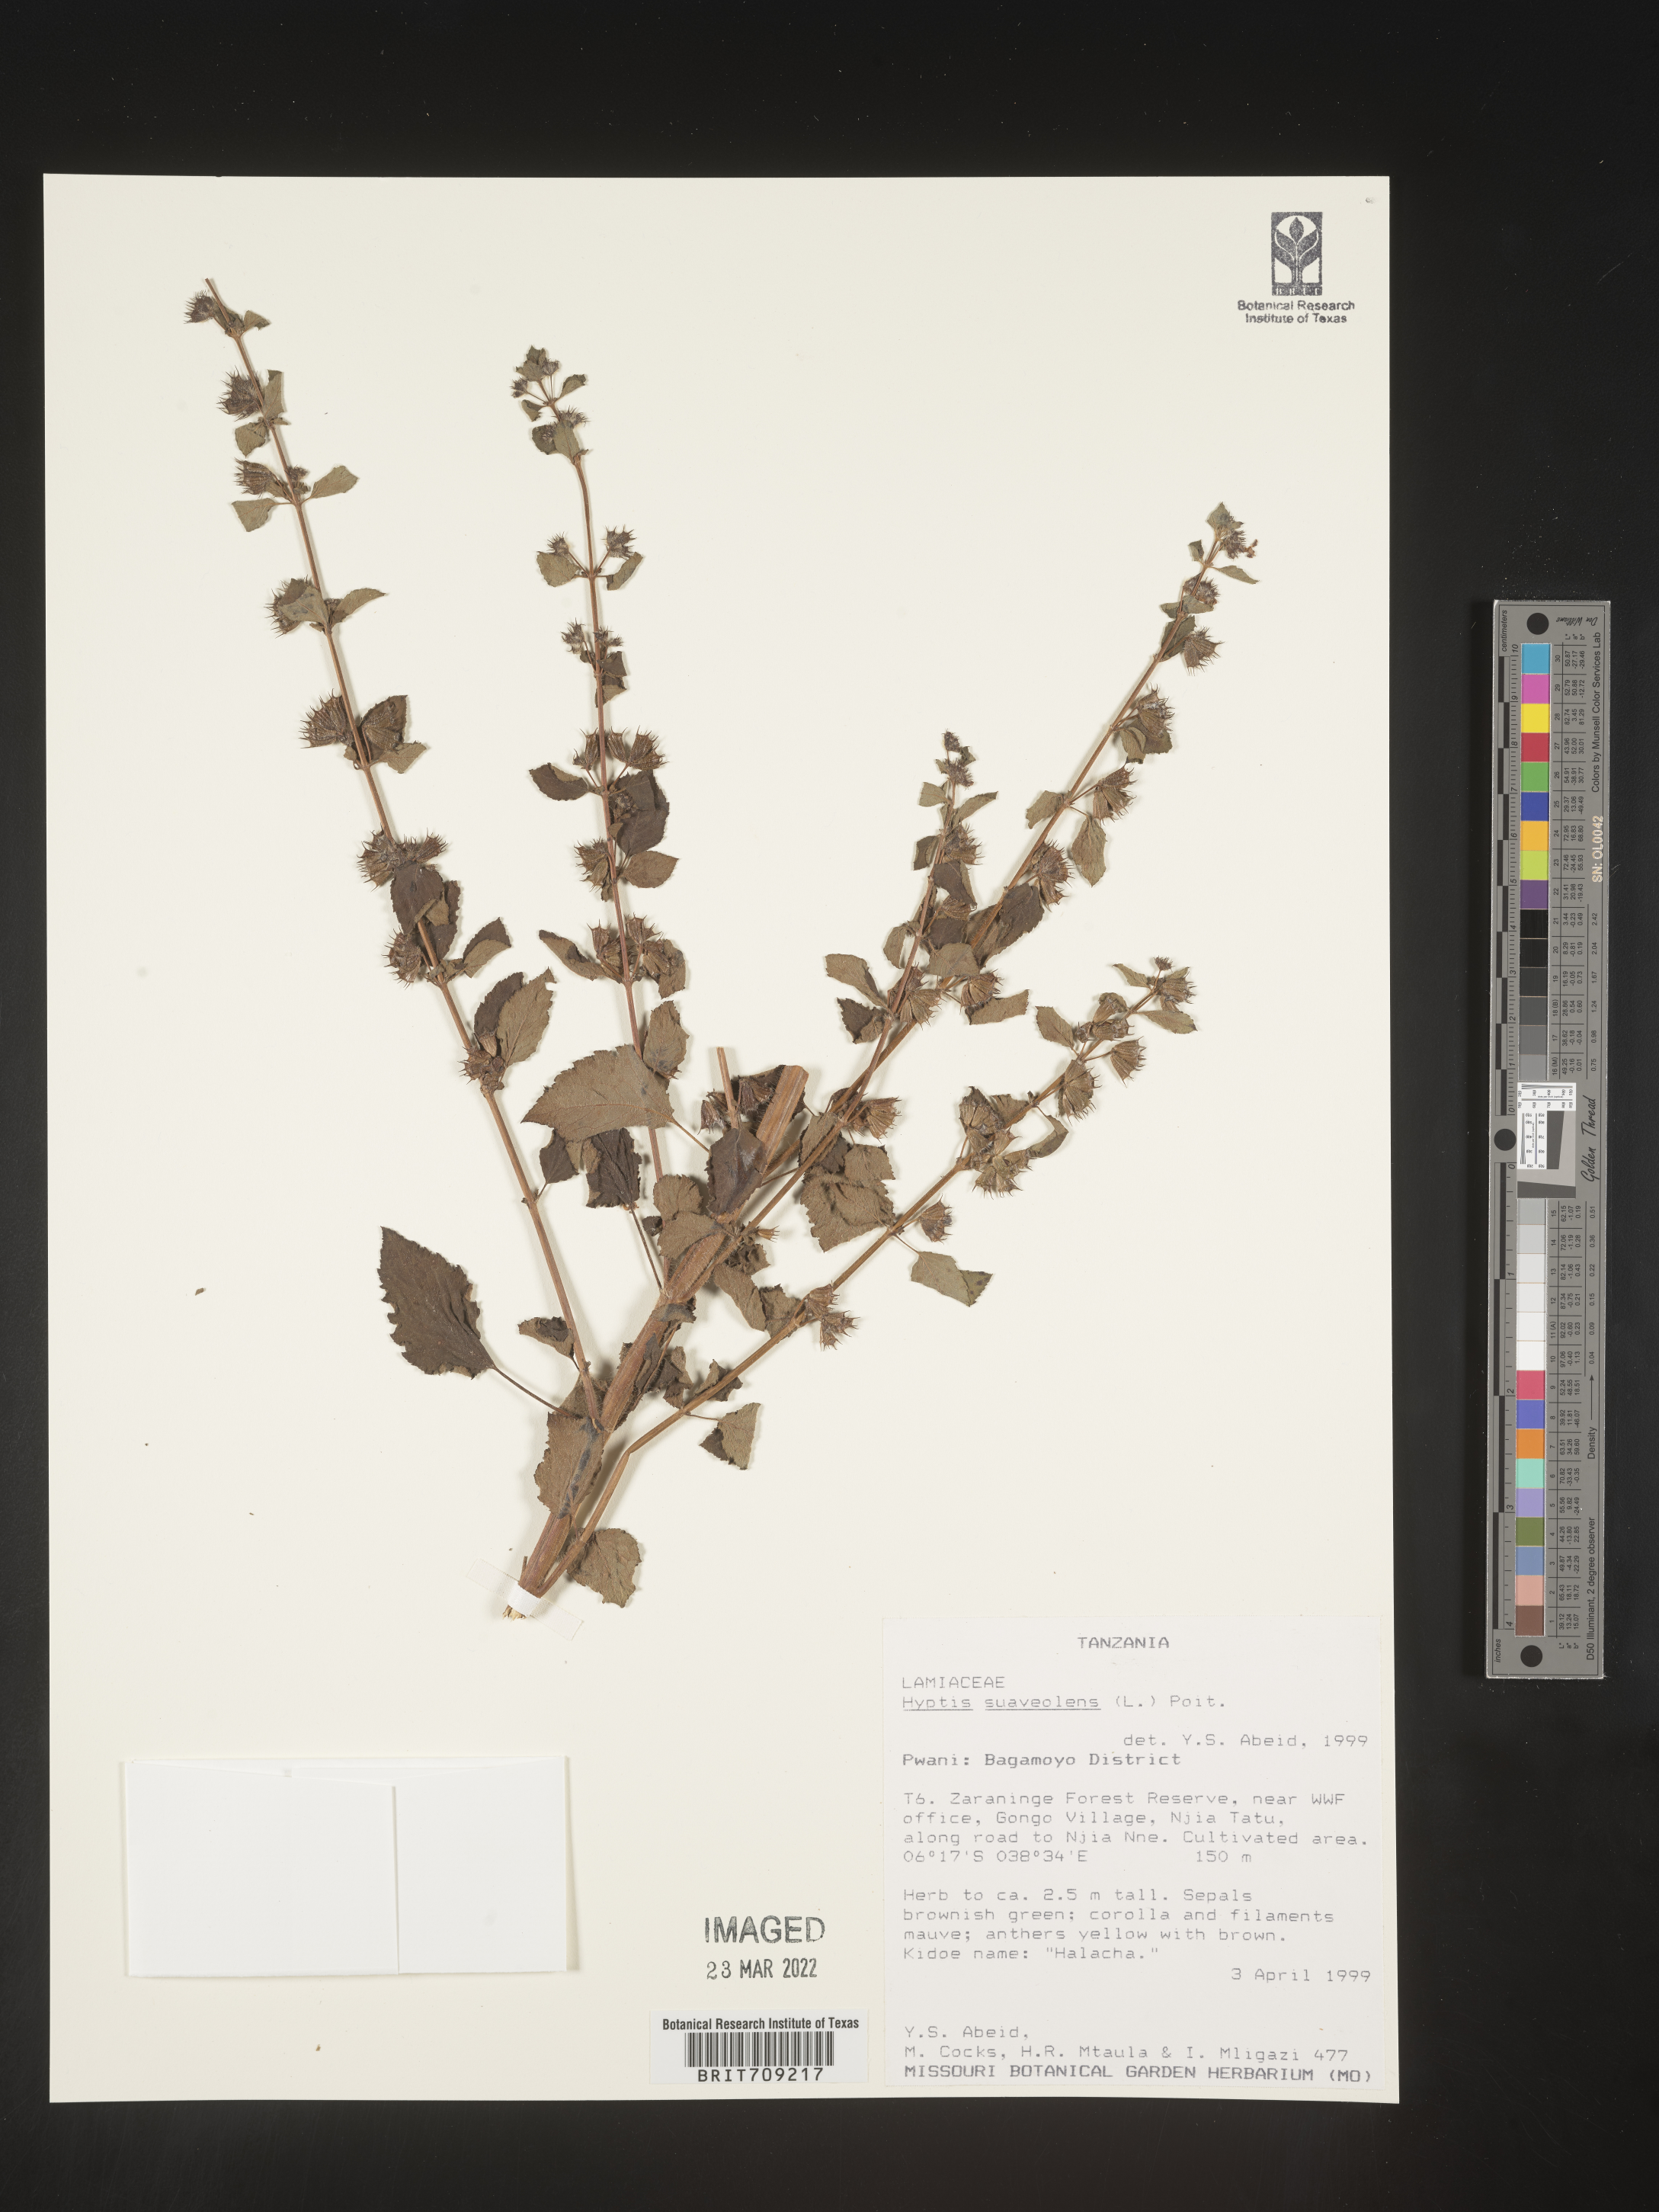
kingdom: Plantae
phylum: Tracheophyta
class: Magnoliopsida
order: Lamiales
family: Lamiaceae
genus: Hyptis
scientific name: Hyptis
